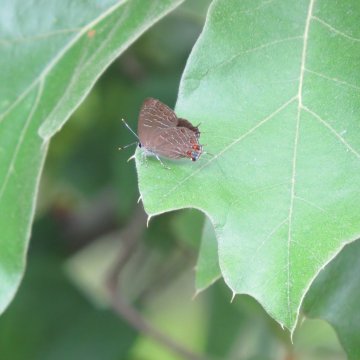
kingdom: Animalia
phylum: Arthropoda
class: Insecta
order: Lepidoptera
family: Lycaenidae
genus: Satyrium
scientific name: Satyrium liparops
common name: Striped Hairstreak
